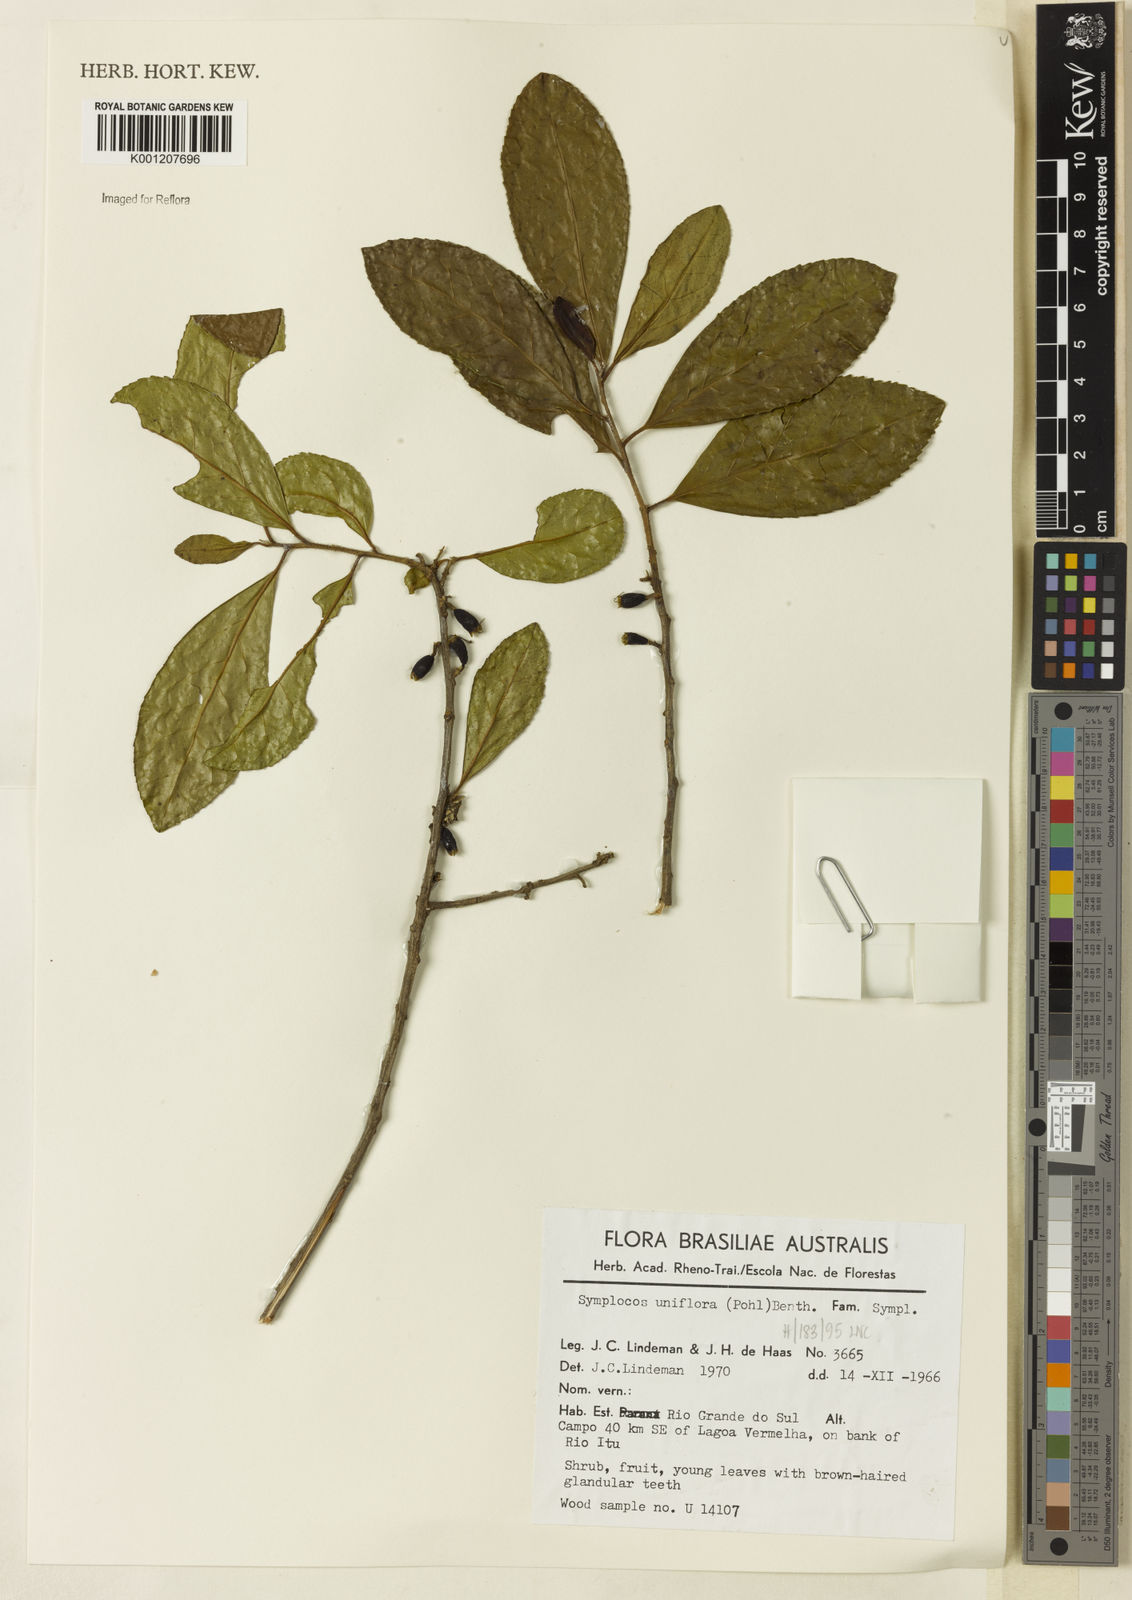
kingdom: Plantae
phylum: Tracheophyta
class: Magnoliopsida
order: Ericales
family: Symplocaceae
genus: Symplocos
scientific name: Symplocos uniflora
